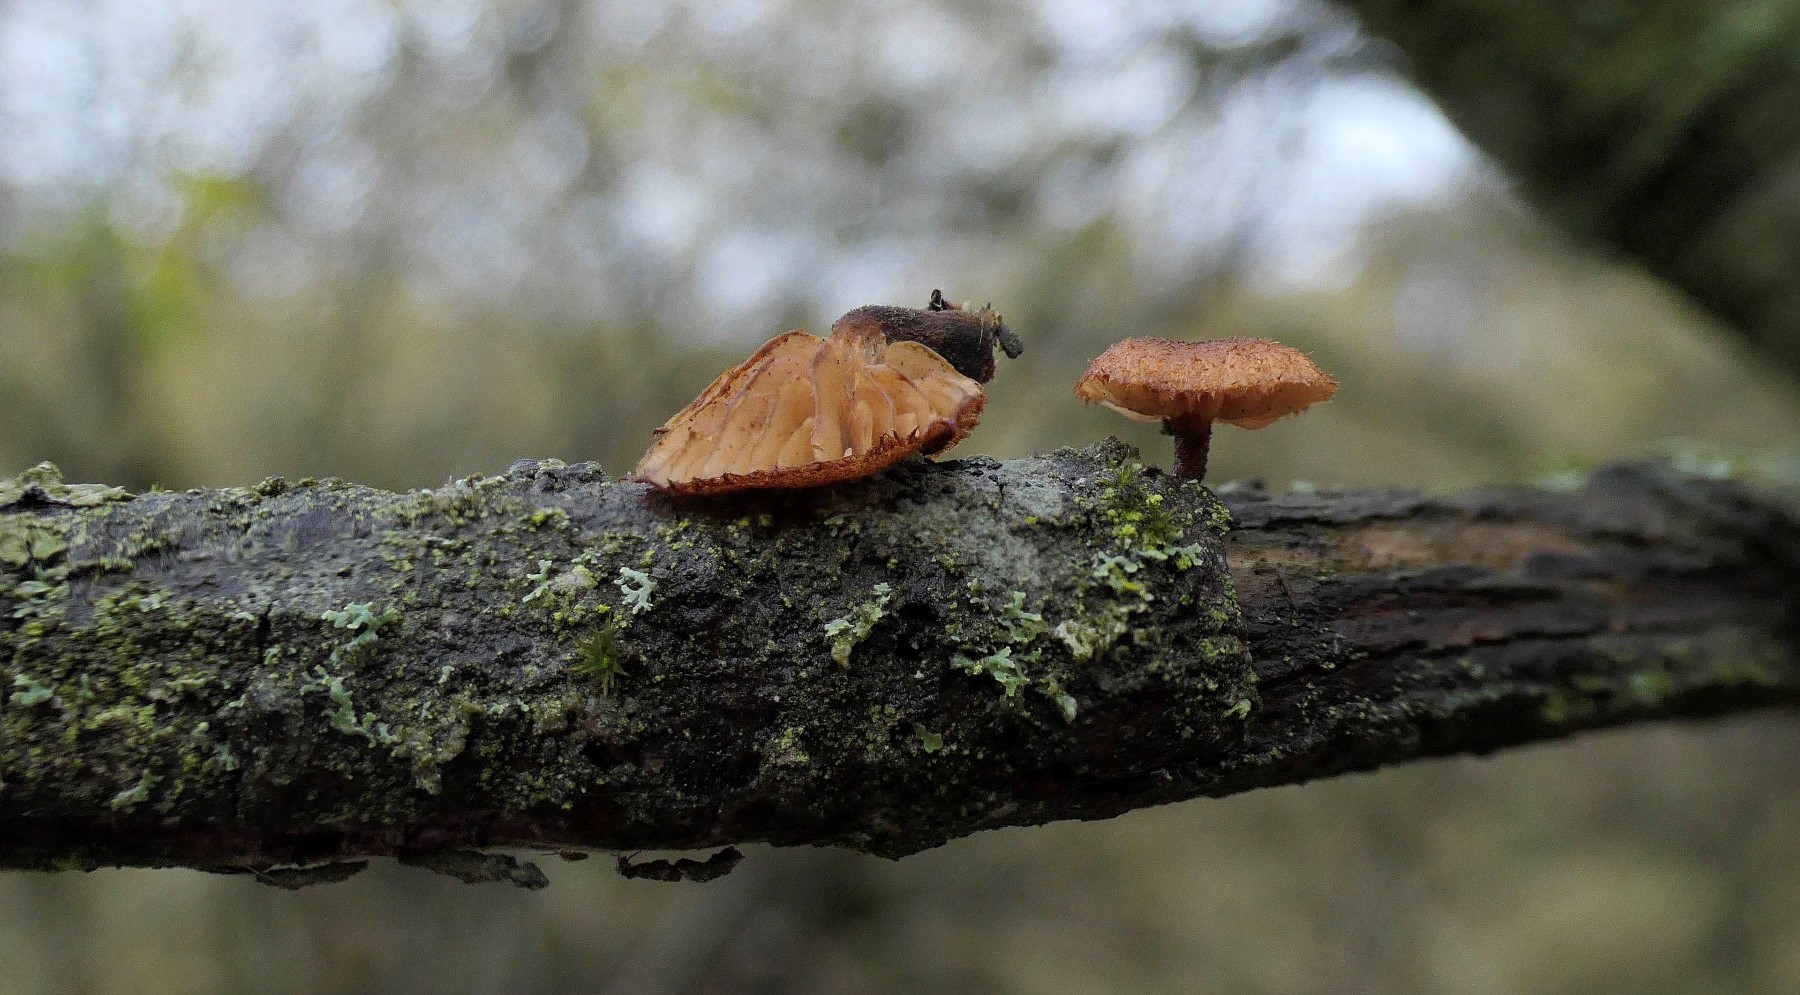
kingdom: Fungi
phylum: Basidiomycota
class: Agaricomycetes
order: Agaricales
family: Tubariaceae
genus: Phaeomarasmius
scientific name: Phaeomarasmius erinaceus
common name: spidsskælhat
